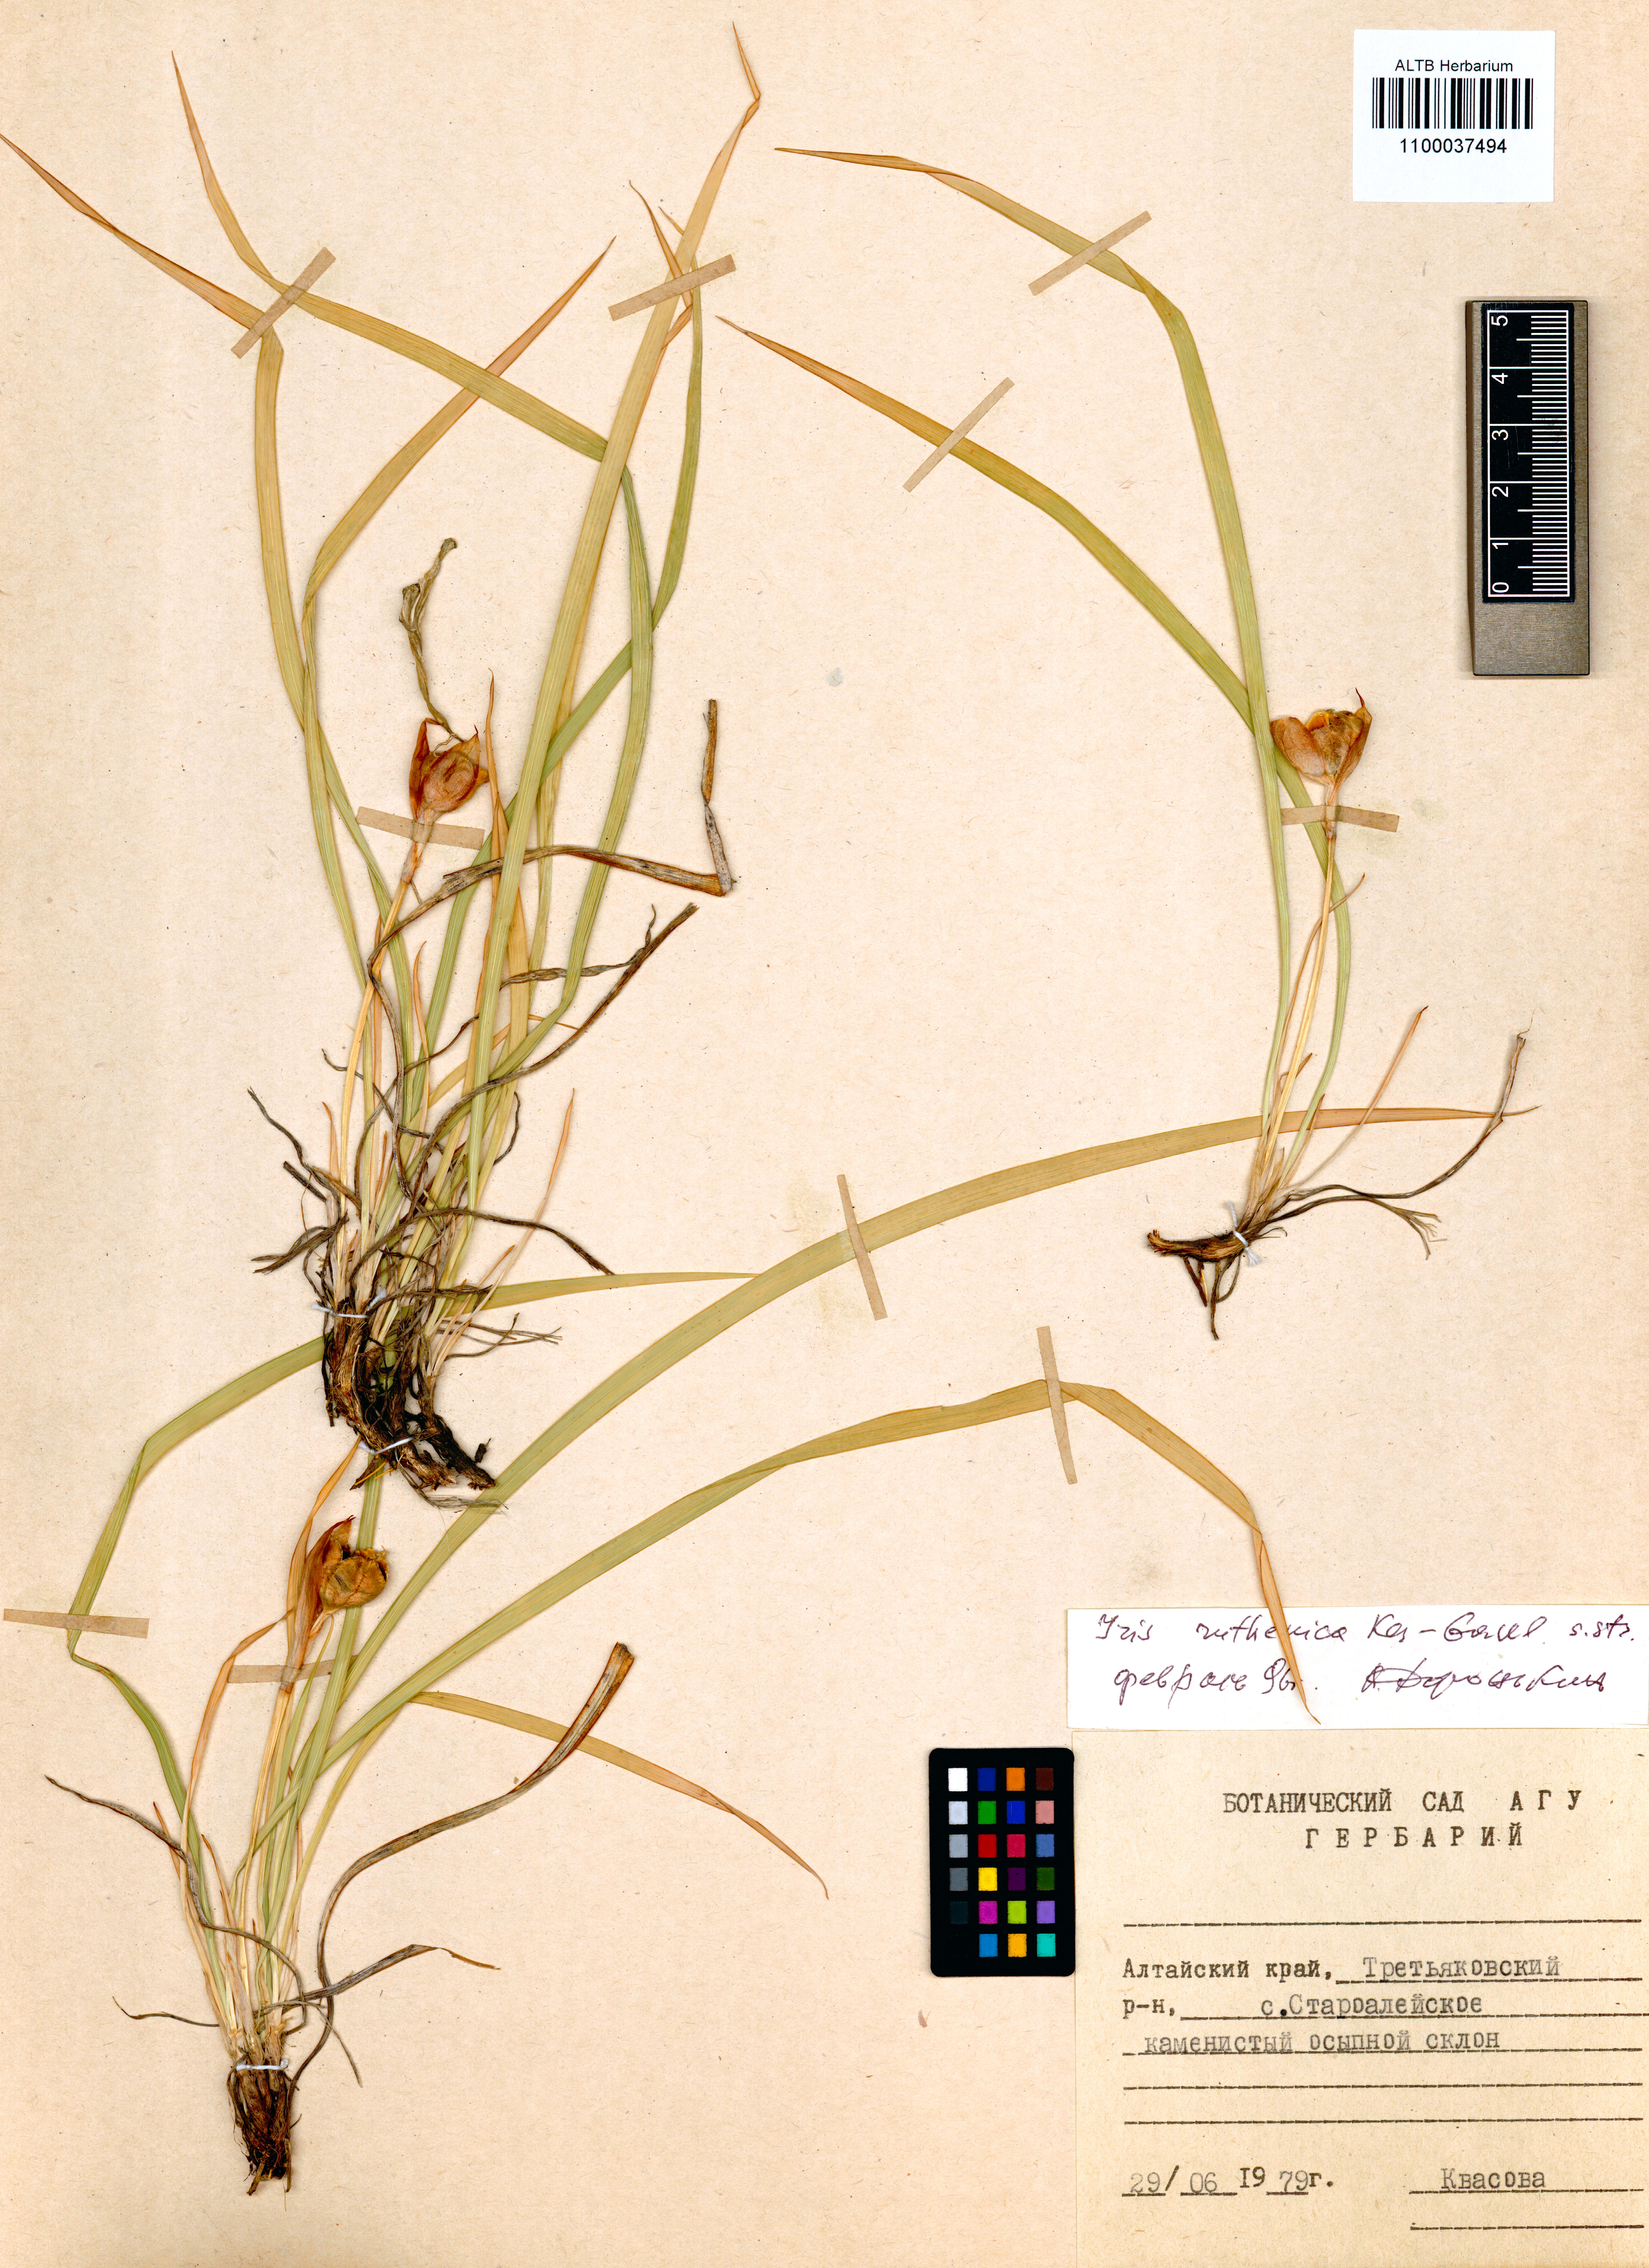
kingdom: Plantae
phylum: Tracheophyta
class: Liliopsida
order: Asparagales
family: Iridaceae
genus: Iris
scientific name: Iris ruthenica
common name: Purple-bract iris
